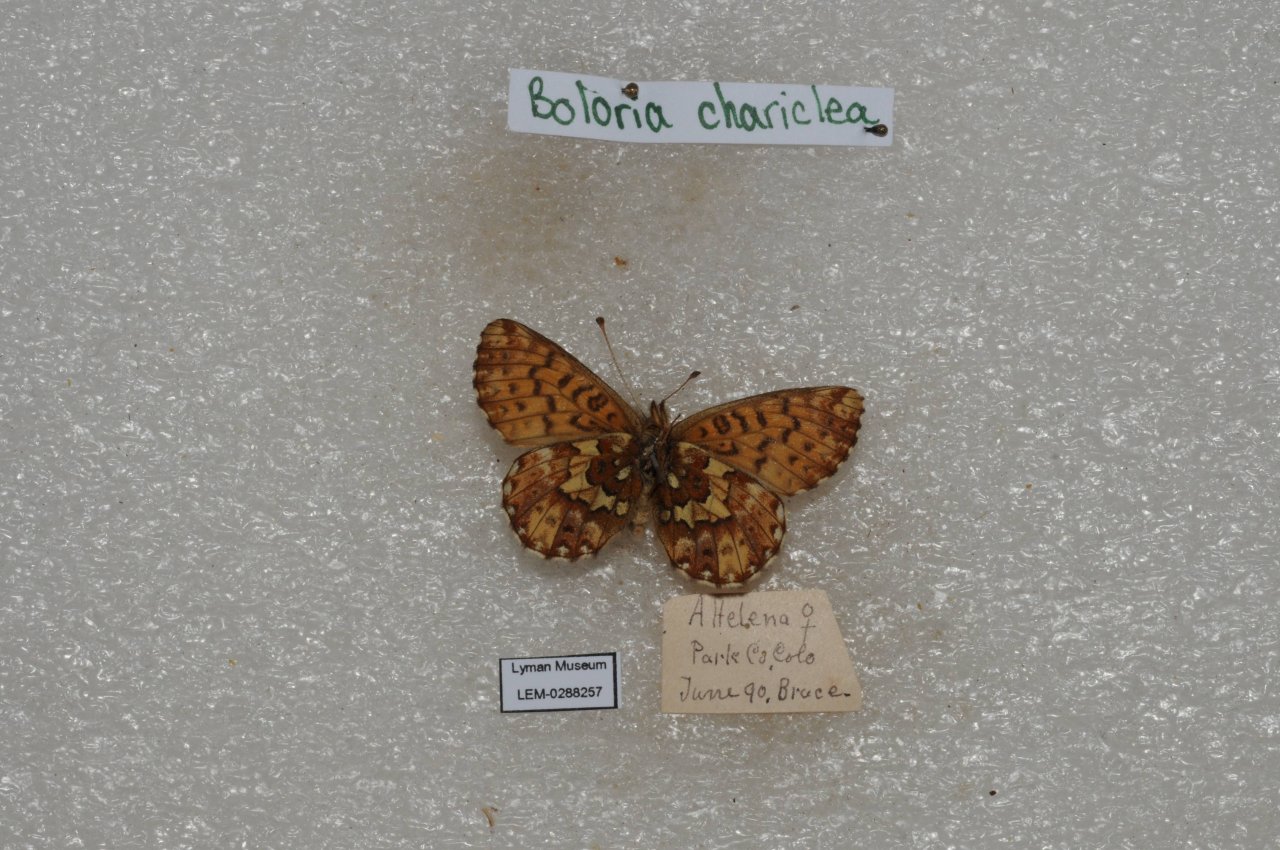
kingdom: Animalia
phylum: Arthropoda
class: Insecta
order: Lepidoptera
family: Nymphalidae
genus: Boloria
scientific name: Boloria chariclea
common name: Arctic Fritillary
